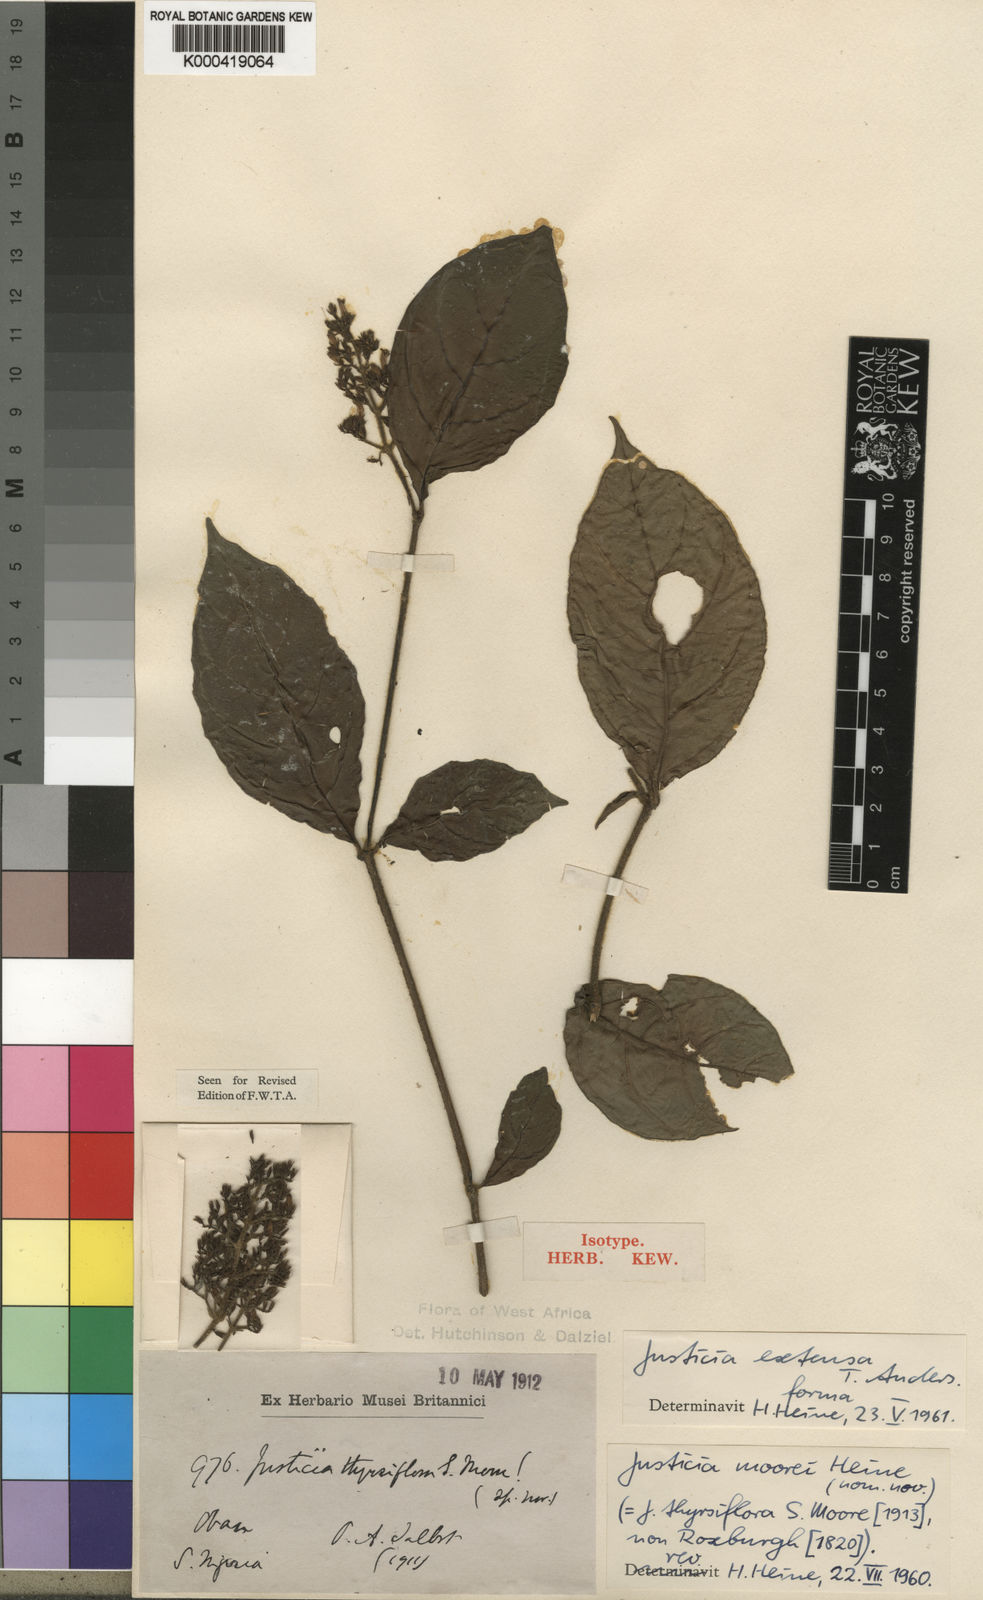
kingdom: Plantae
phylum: Tracheophyta
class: Magnoliopsida
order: Lamiales
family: Acanthaceae
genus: Justicia
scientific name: Justicia extensa
